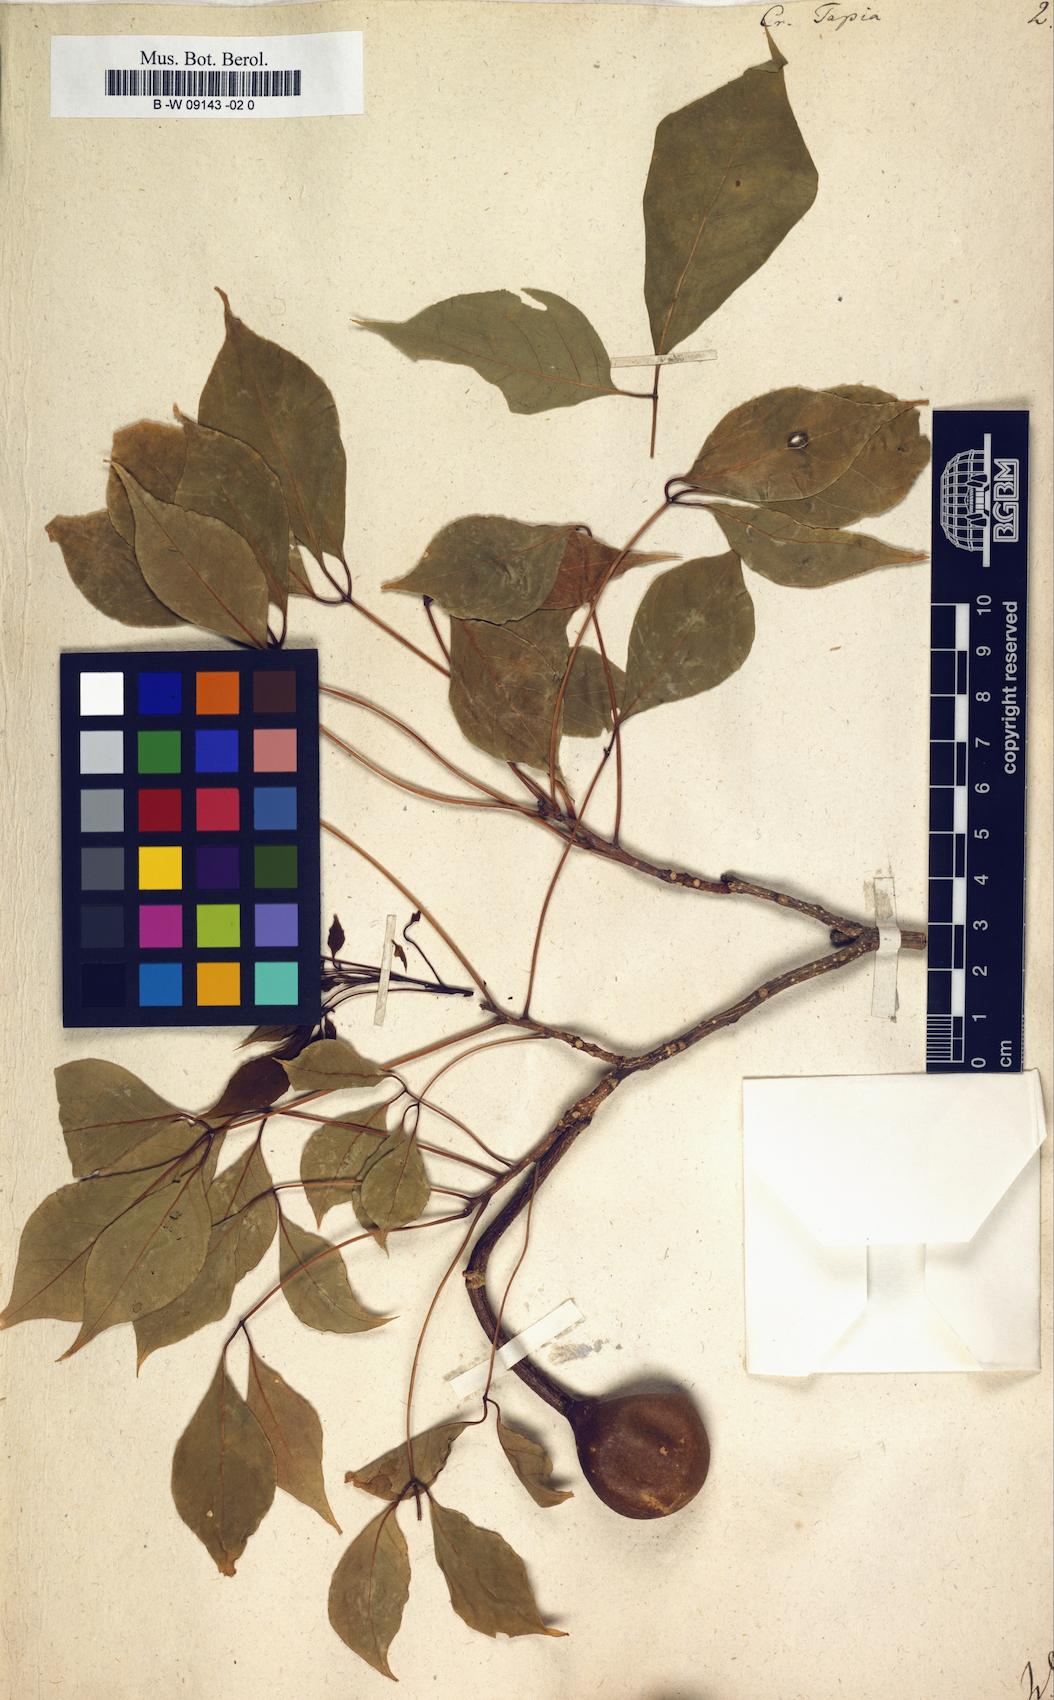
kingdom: Plantae
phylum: Tracheophyta
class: Magnoliopsida
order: Brassicales
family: Capparaceae
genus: Crateva
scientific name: Crateva tapia
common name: Garlic-pear
